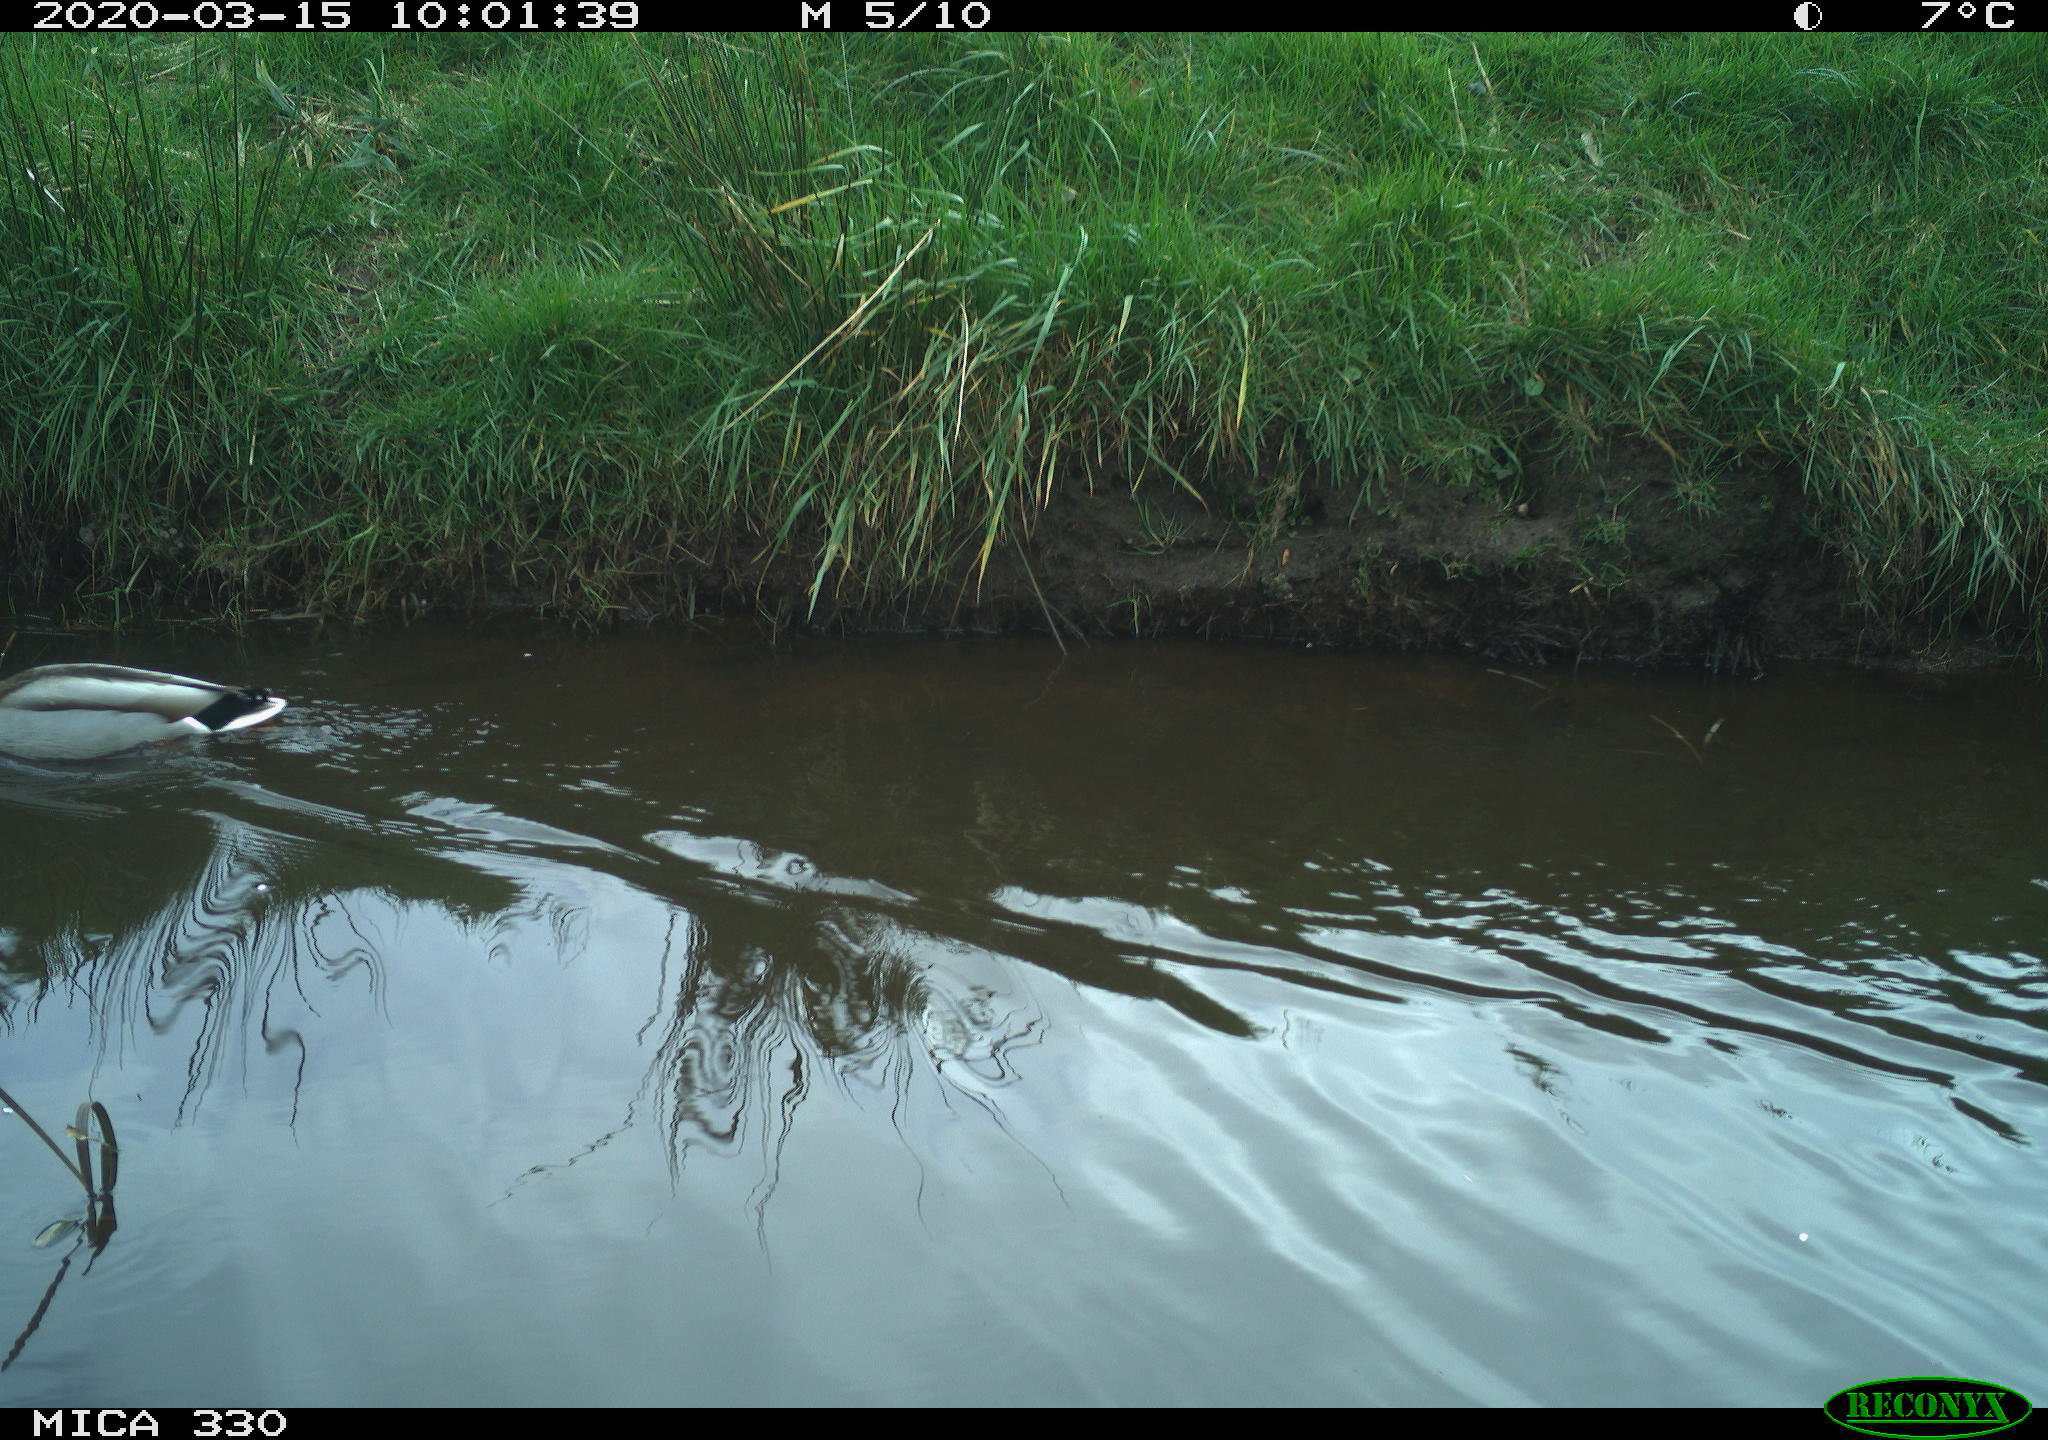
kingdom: Animalia
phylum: Chordata
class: Aves
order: Anseriformes
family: Anatidae
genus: Anas
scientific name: Anas platyrhynchos
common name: Mallard
